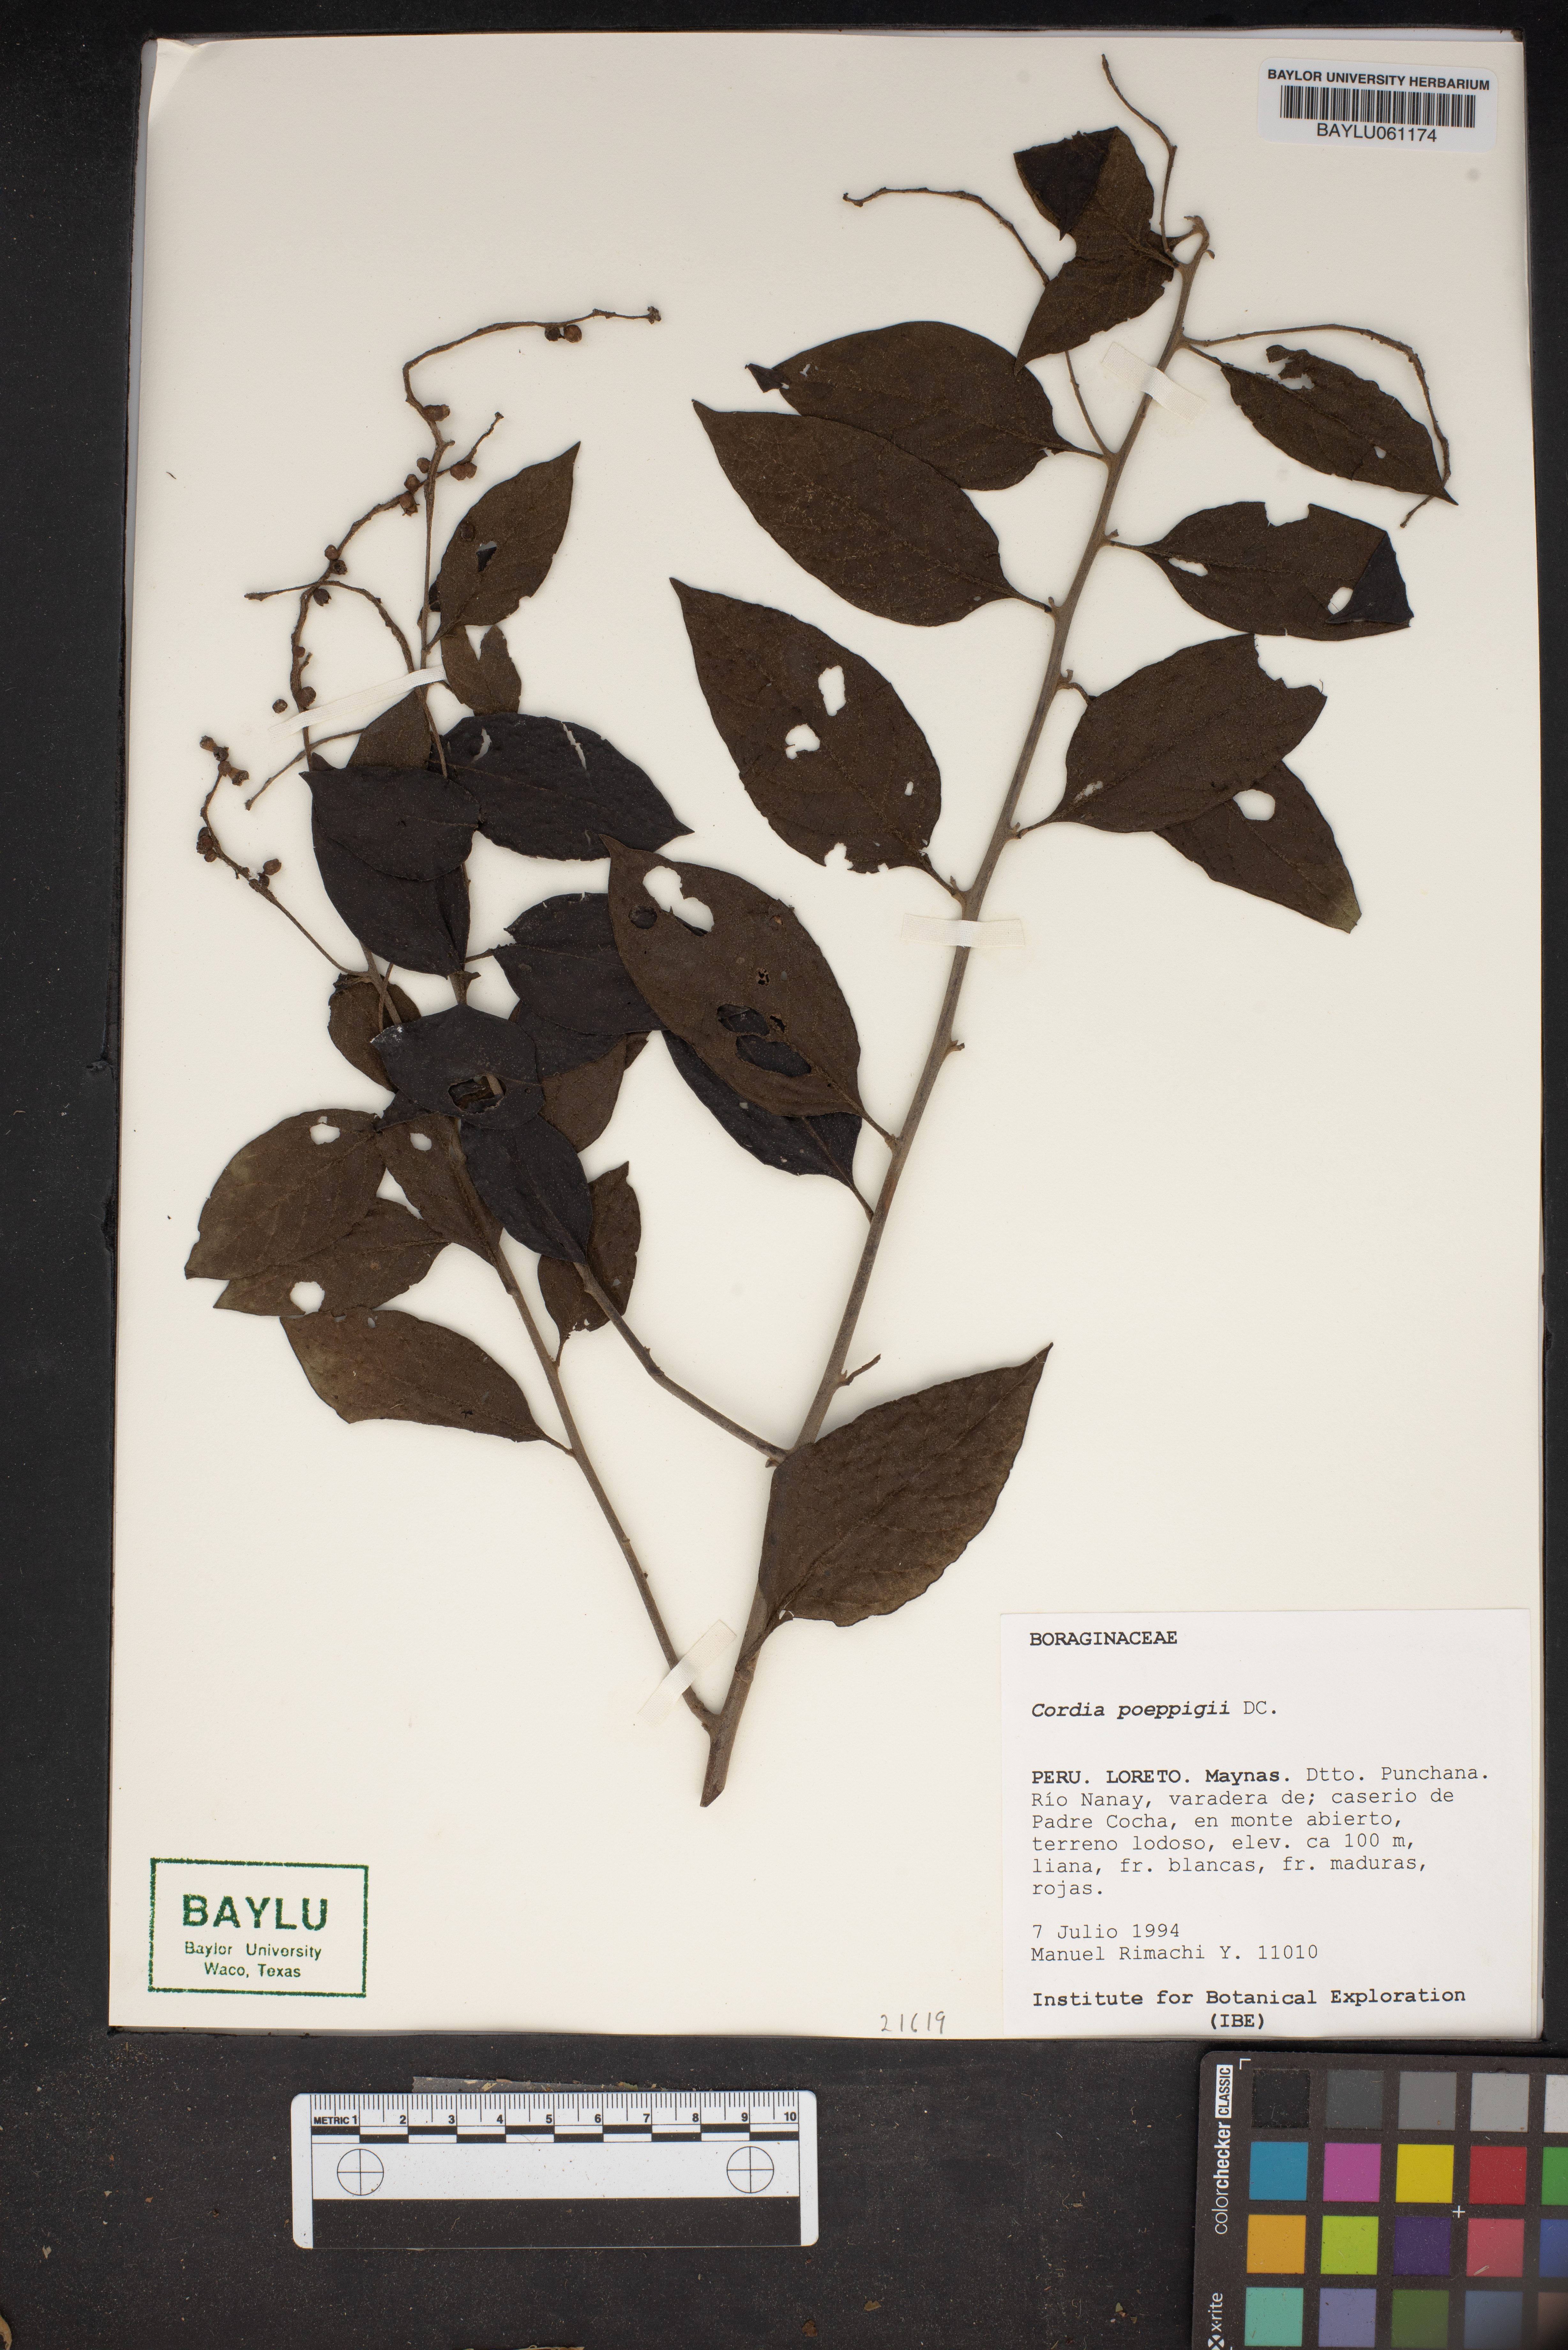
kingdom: Plantae
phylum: Tracheophyta
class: Magnoliopsida
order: Boraginales
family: Cordiaceae
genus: Varronia
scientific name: Varronia spinescens
